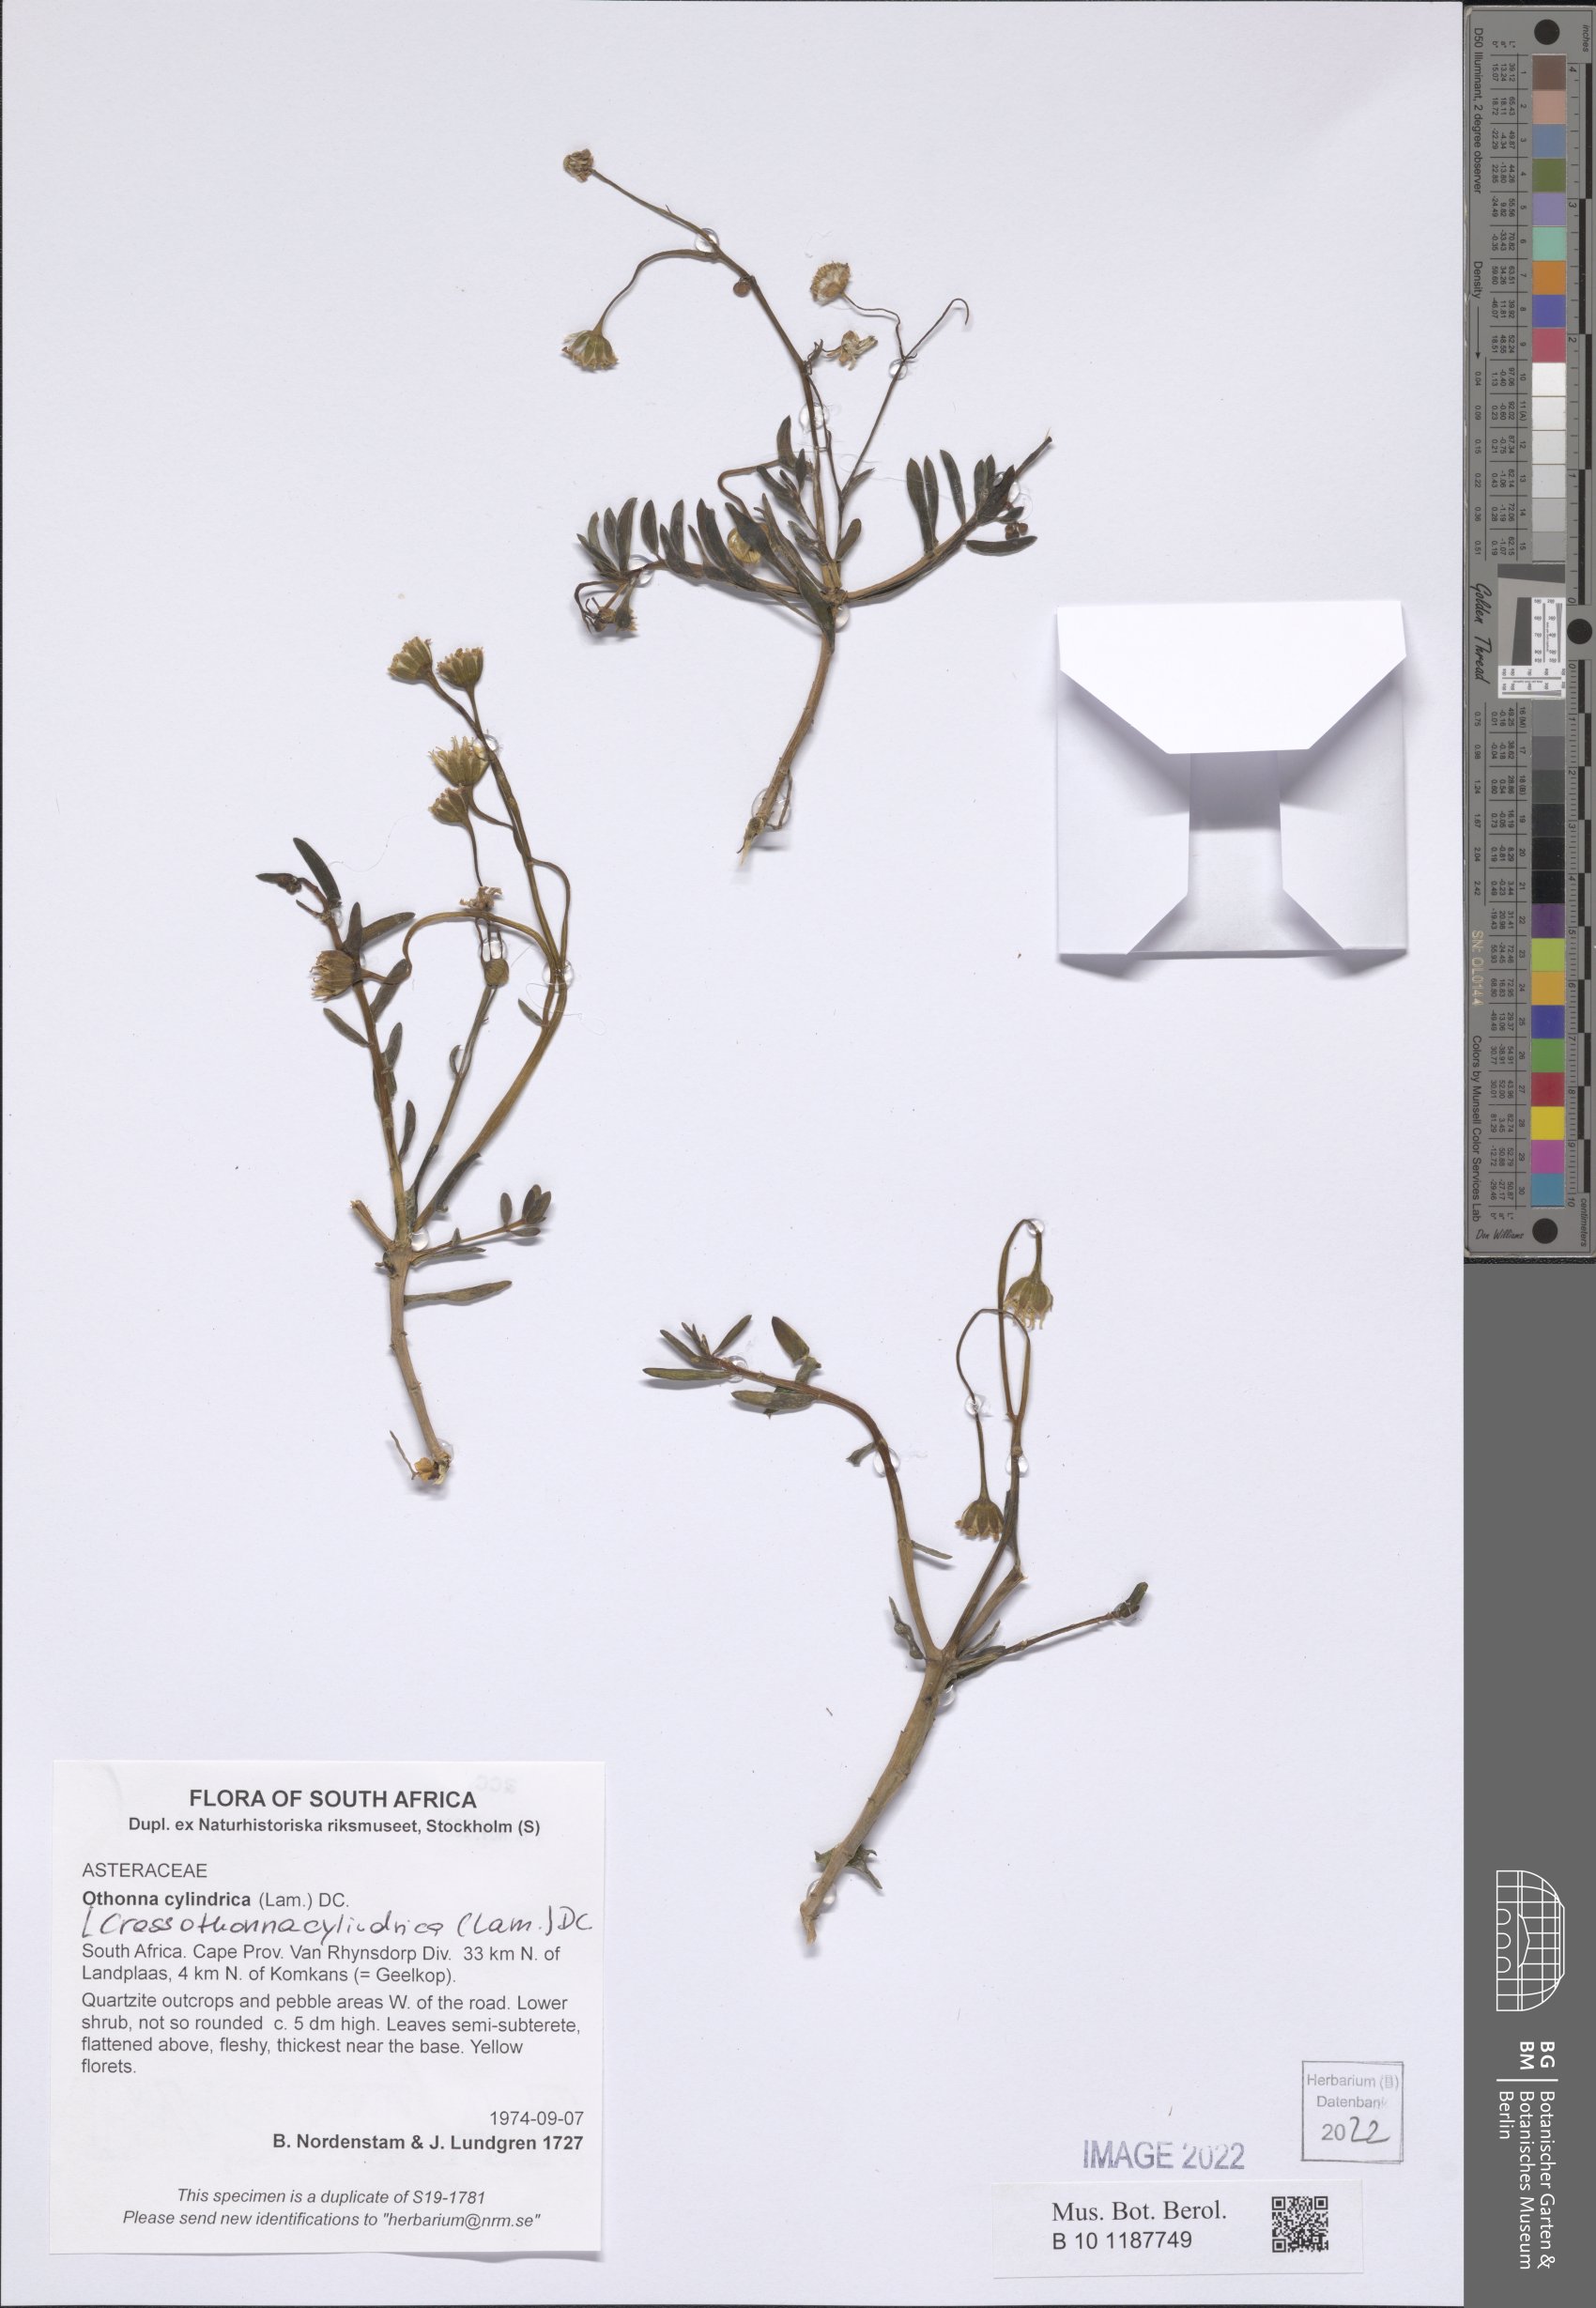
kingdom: Plantae
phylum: Tracheophyta
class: Magnoliopsida
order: Asterales
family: Asteraceae
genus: Crassothonna
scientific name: Crassothonna cylindrica
